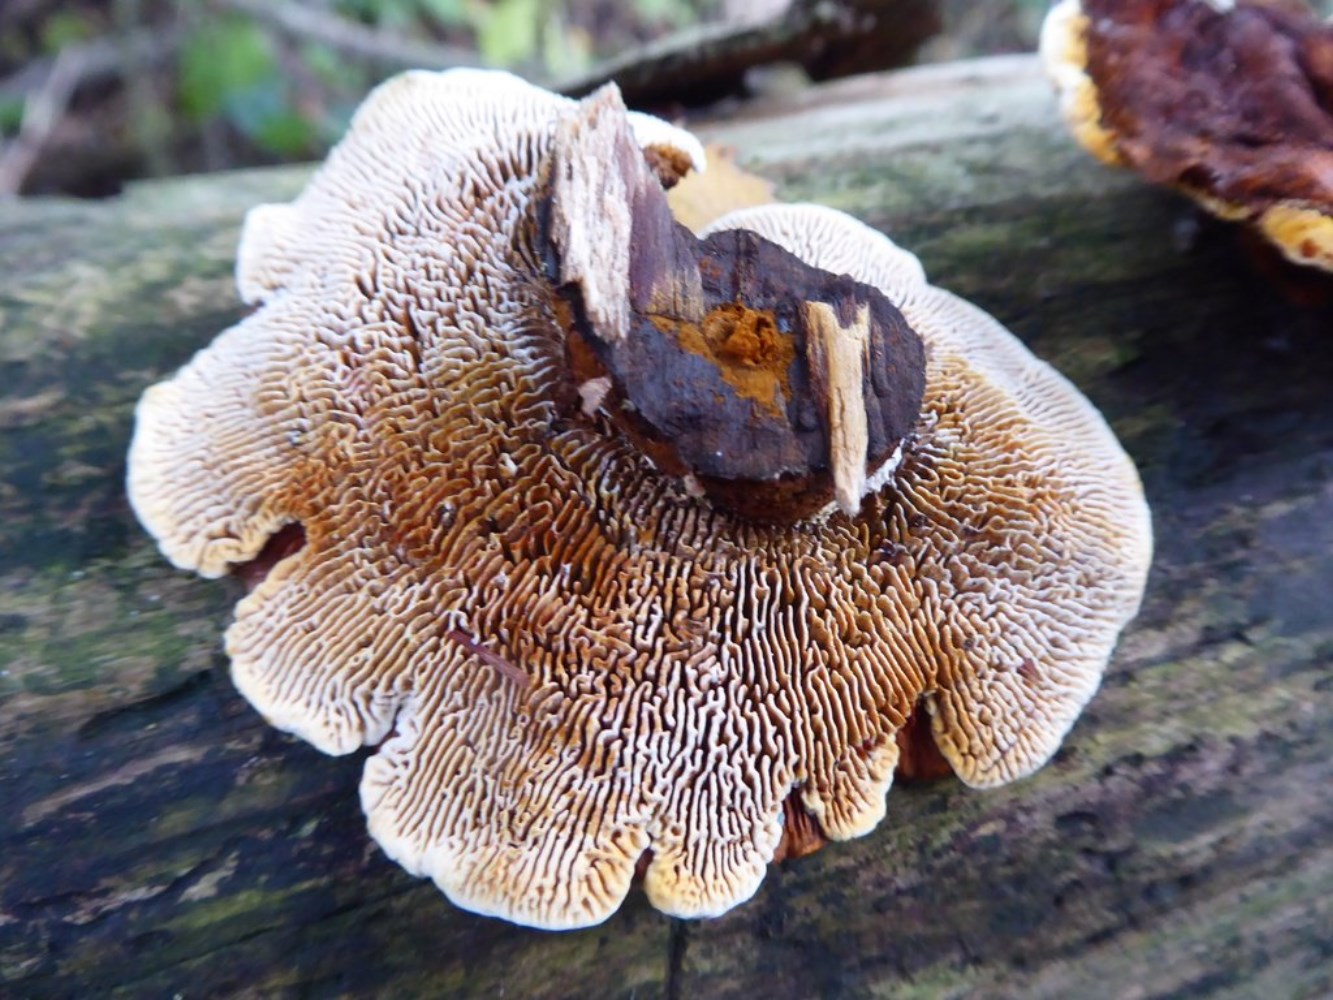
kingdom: Fungi
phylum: Basidiomycota
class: Agaricomycetes
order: Gloeophyllales
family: Gloeophyllaceae
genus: Gloeophyllum
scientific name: Gloeophyllum sepiarium
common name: fyrre-korkhat
